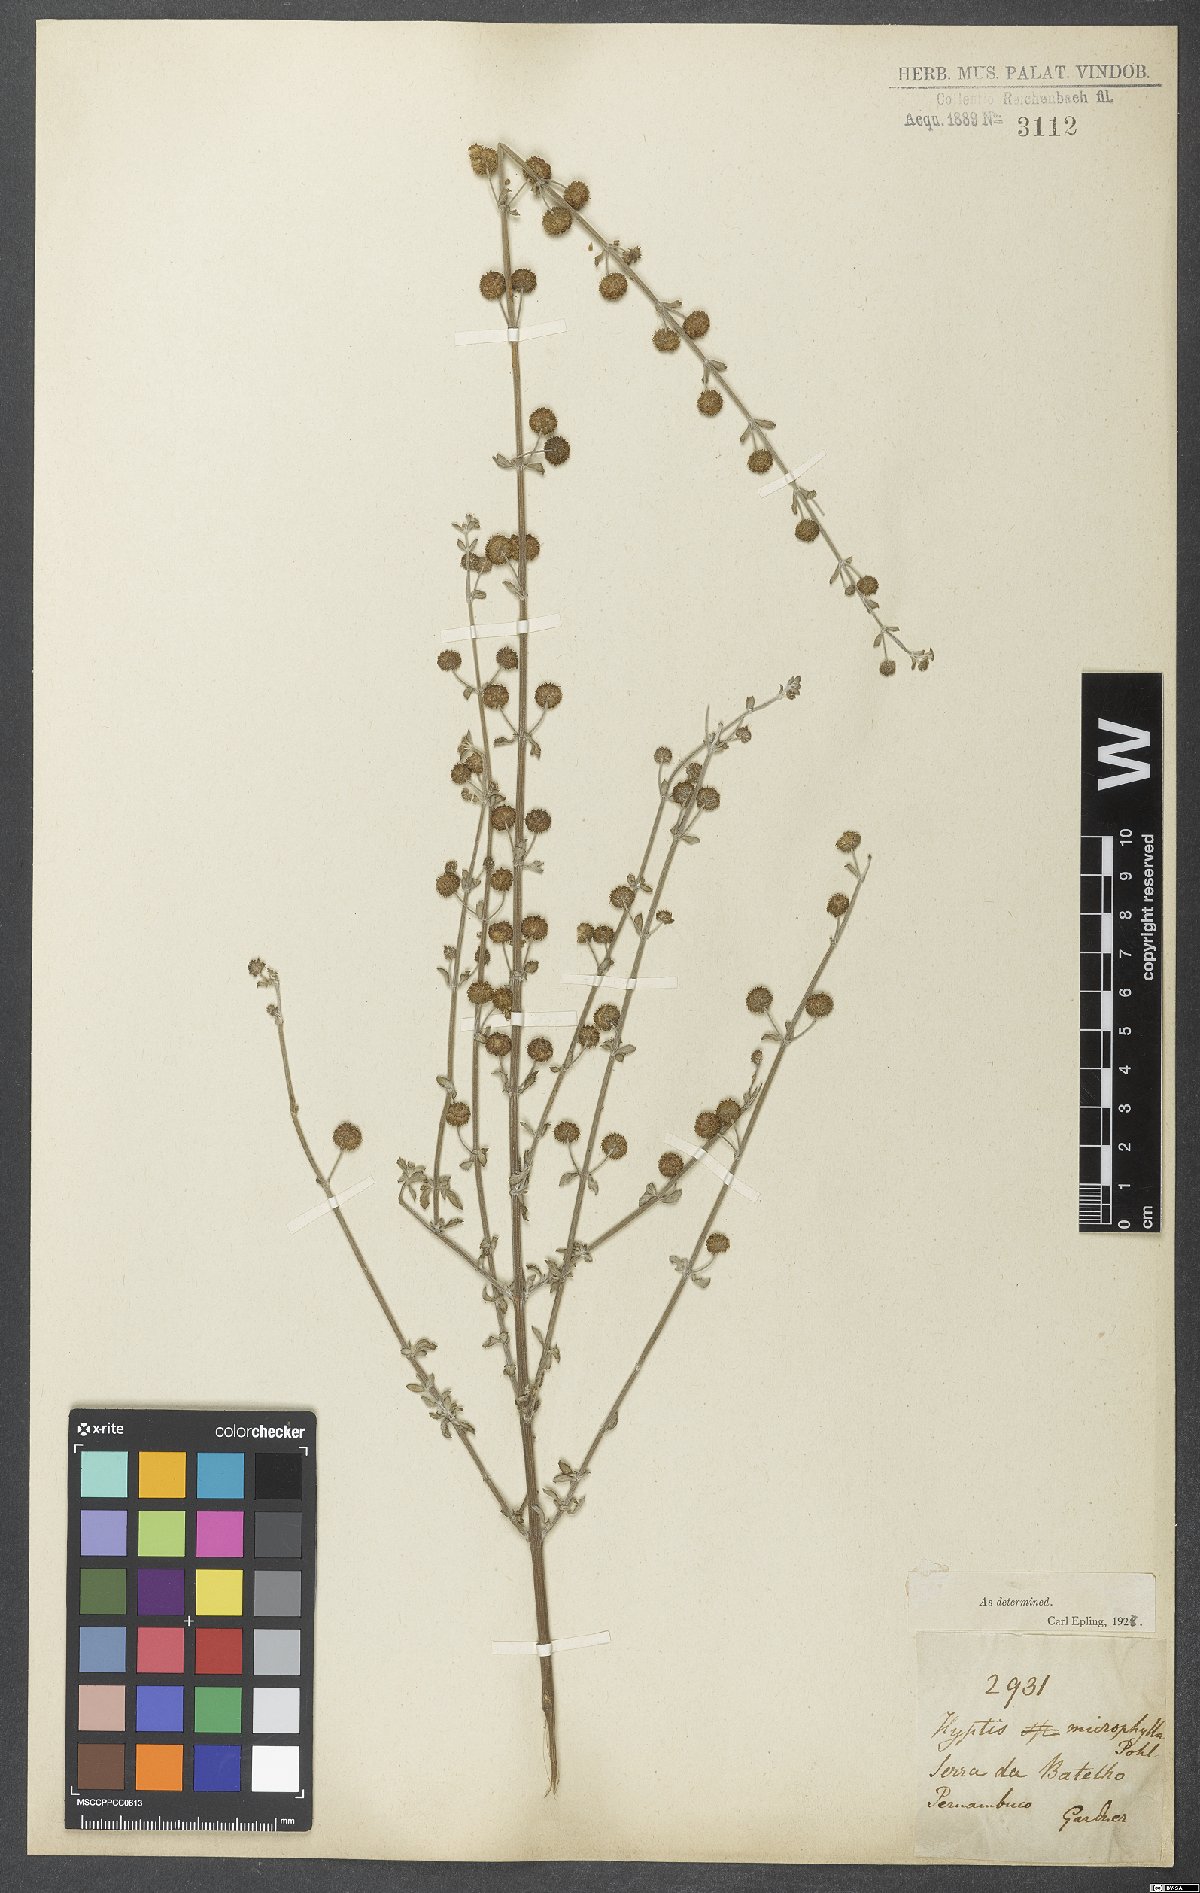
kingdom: Plantae
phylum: Tracheophyta
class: Magnoliopsida
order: Lamiales
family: Lamiaceae
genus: Hyptis
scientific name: Hyptis microphylla
